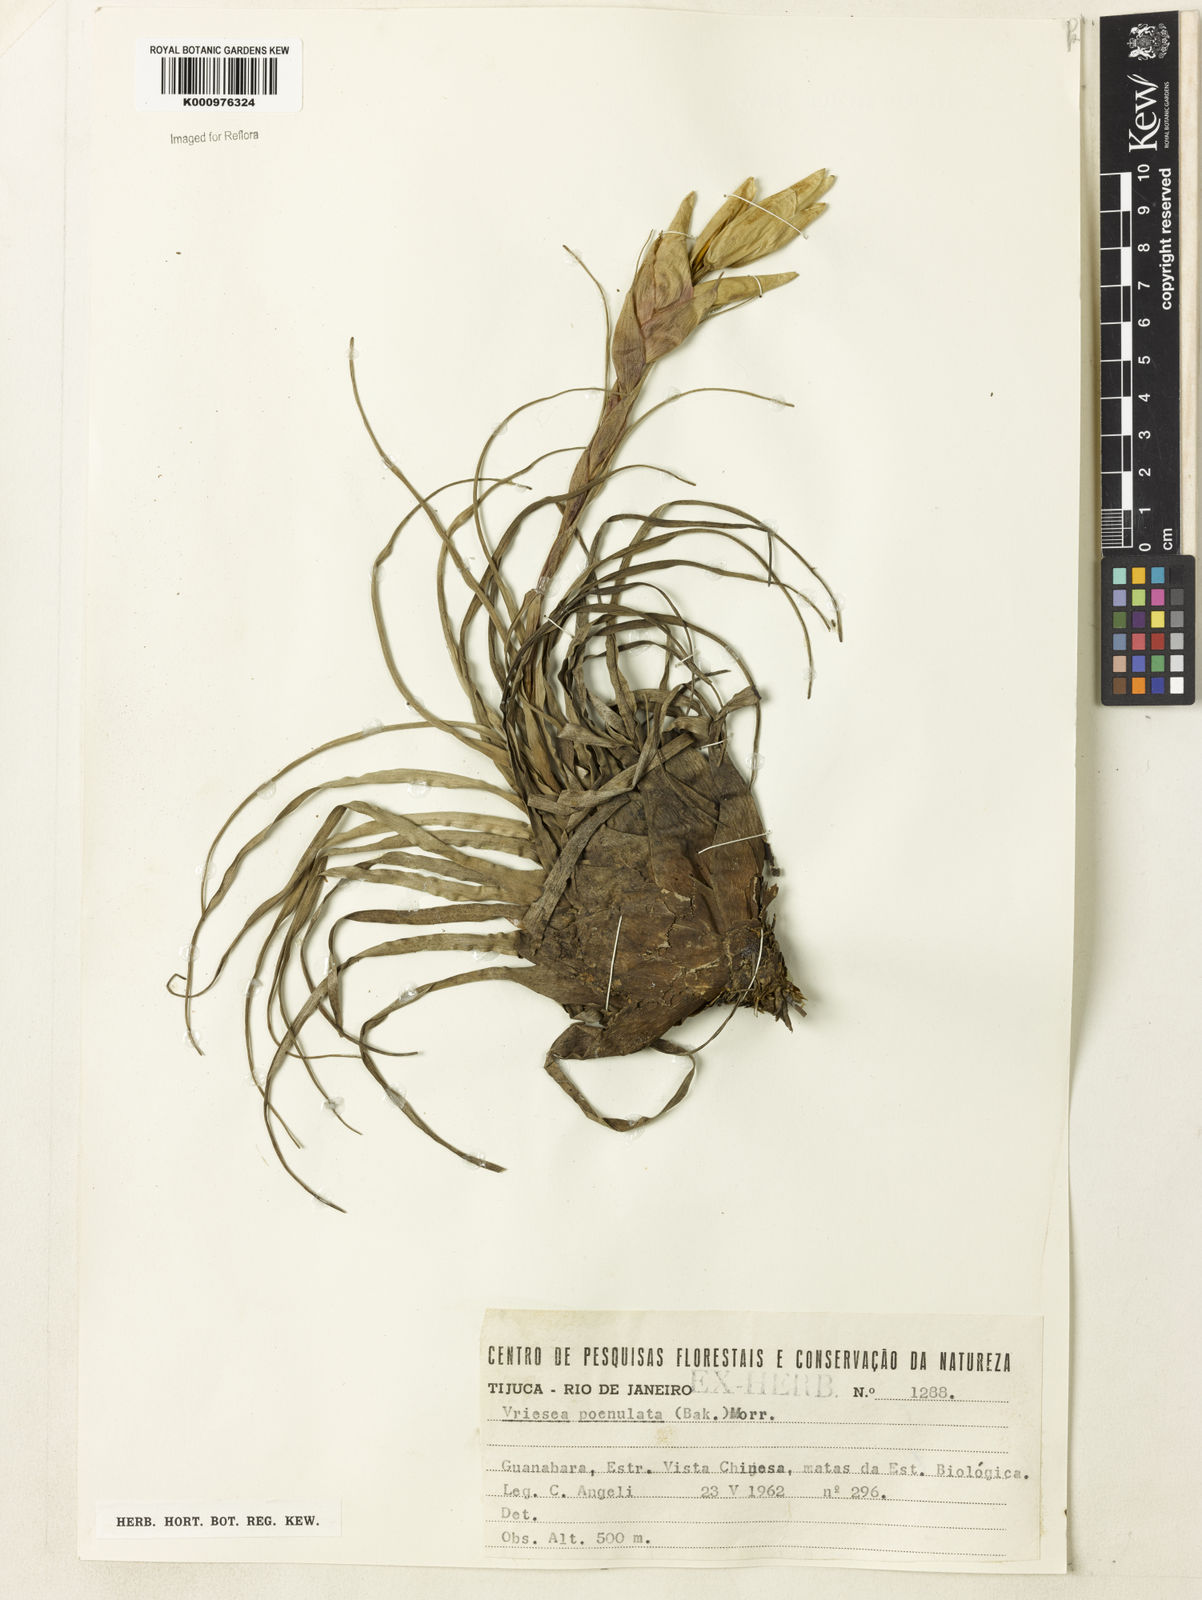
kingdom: Plantae
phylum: Tracheophyta
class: Liliopsida
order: Poales
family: Bromeliaceae
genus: Vriesea
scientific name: Vriesea poenulata
